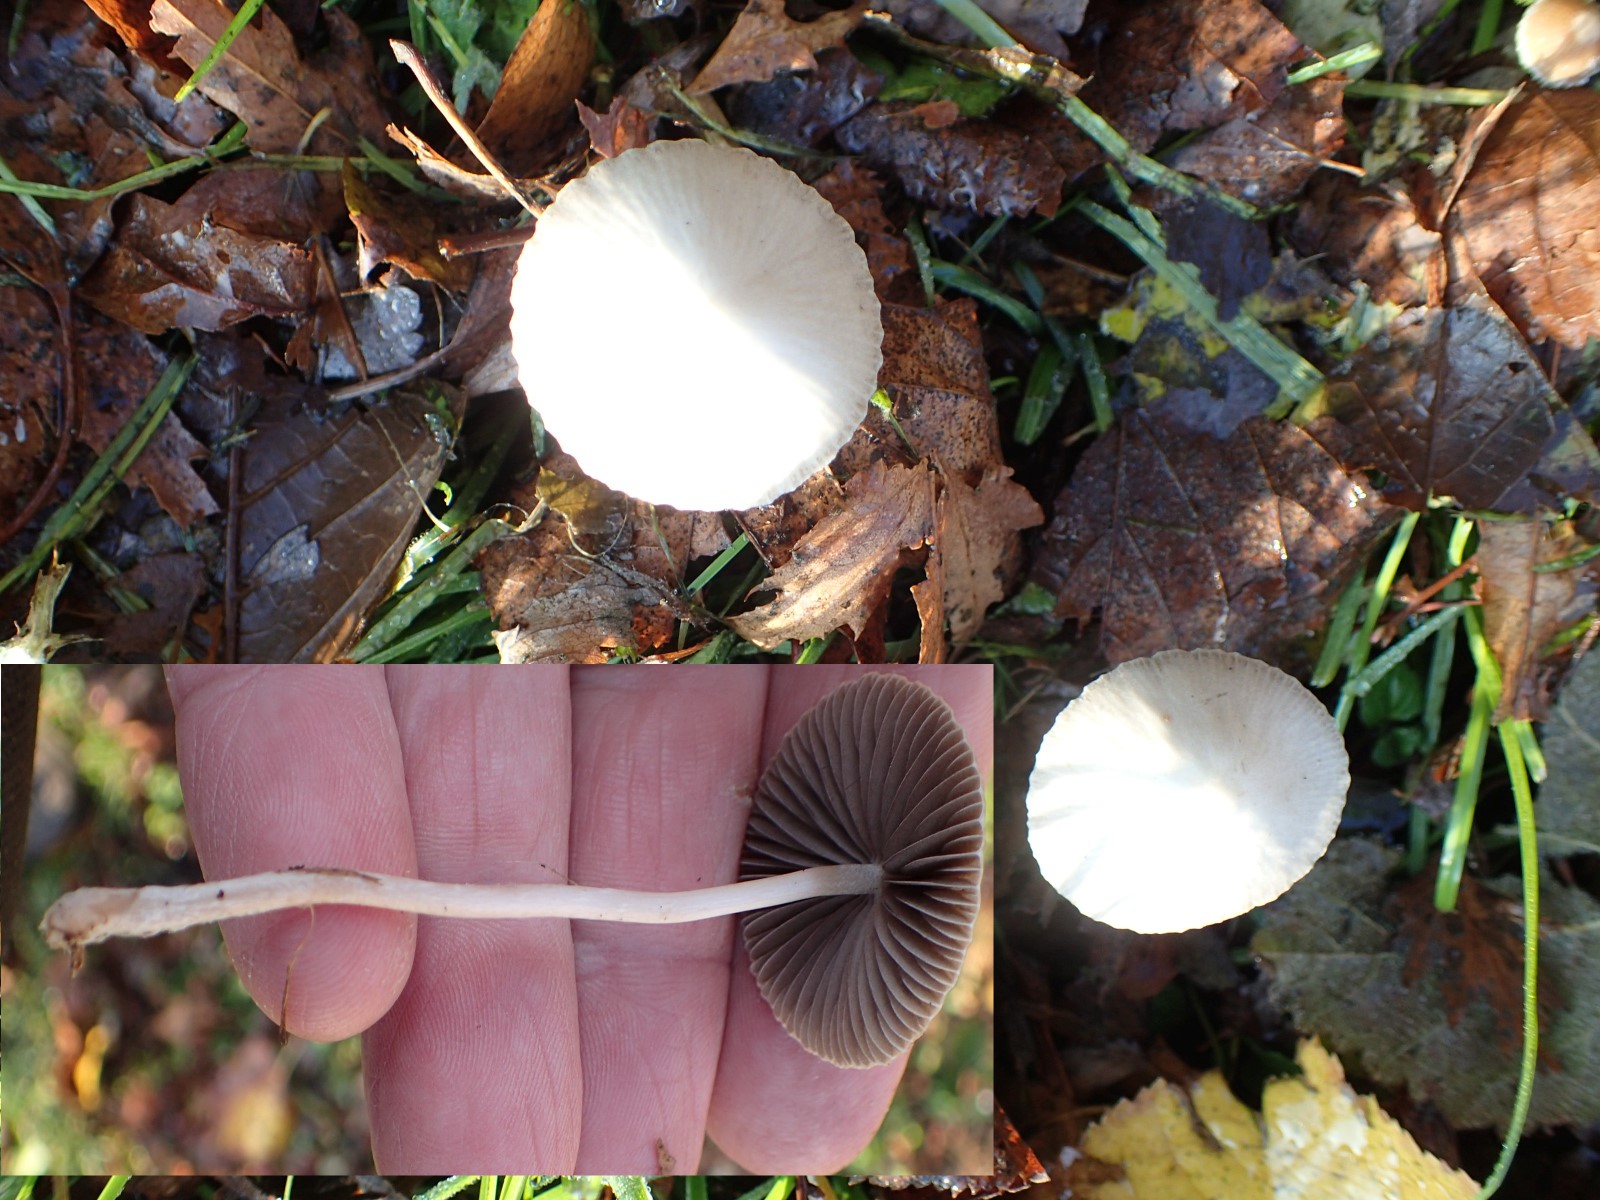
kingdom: Fungi
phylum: Basidiomycota
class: Agaricomycetes
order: Agaricales
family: Psathyrellaceae
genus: Psathyrella
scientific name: Psathyrella
